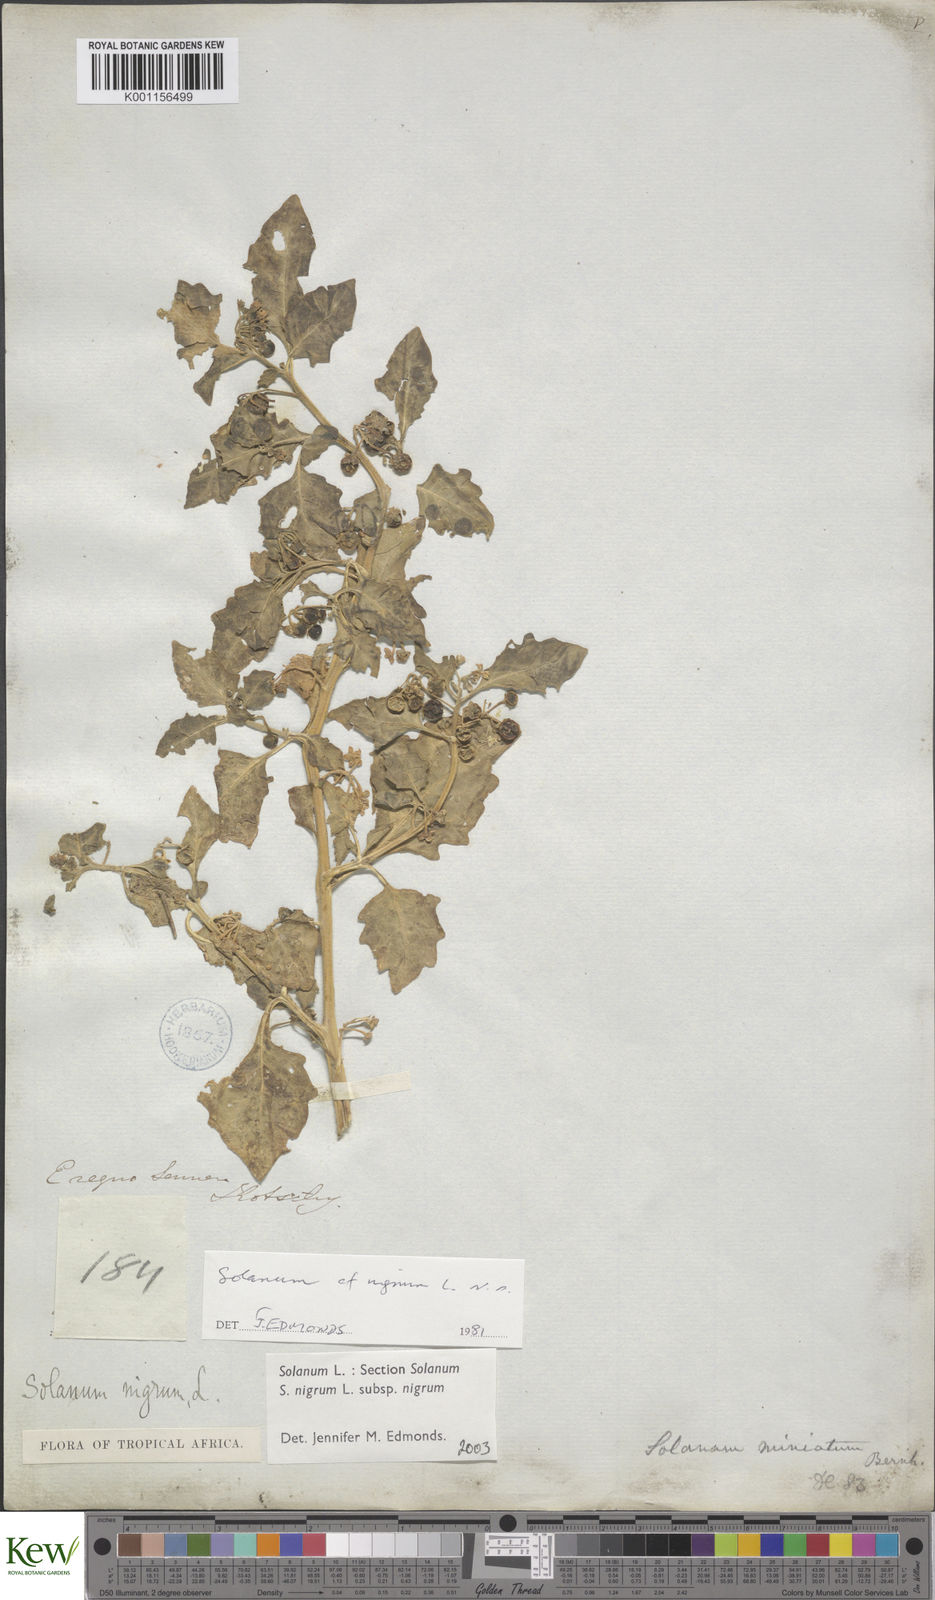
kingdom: Plantae
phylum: Tracheophyta
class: Magnoliopsida
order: Solanales
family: Solanaceae
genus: Solanum
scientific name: Solanum nigrum
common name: Black nightshade
